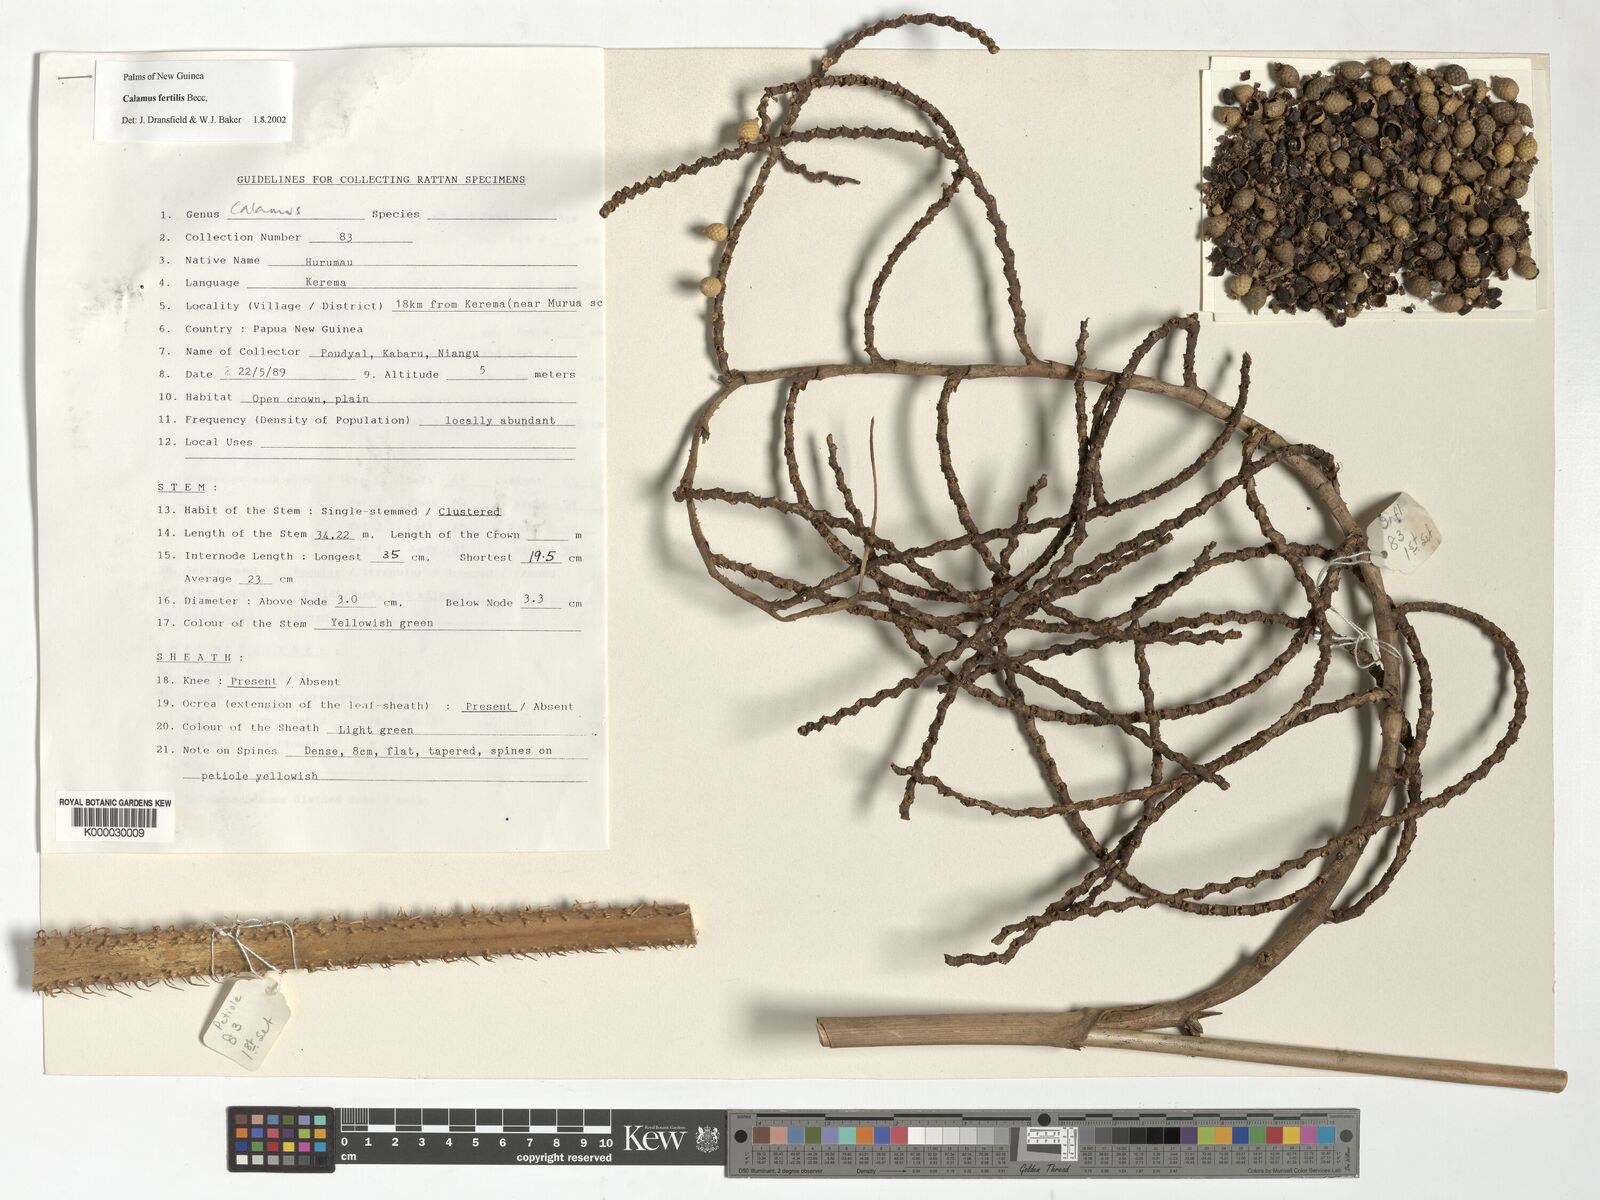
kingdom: Plantae
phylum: Tracheophyta
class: Liliopsida
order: Arecales
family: Arecaceae
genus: Calamus
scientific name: Calamus fertilis
